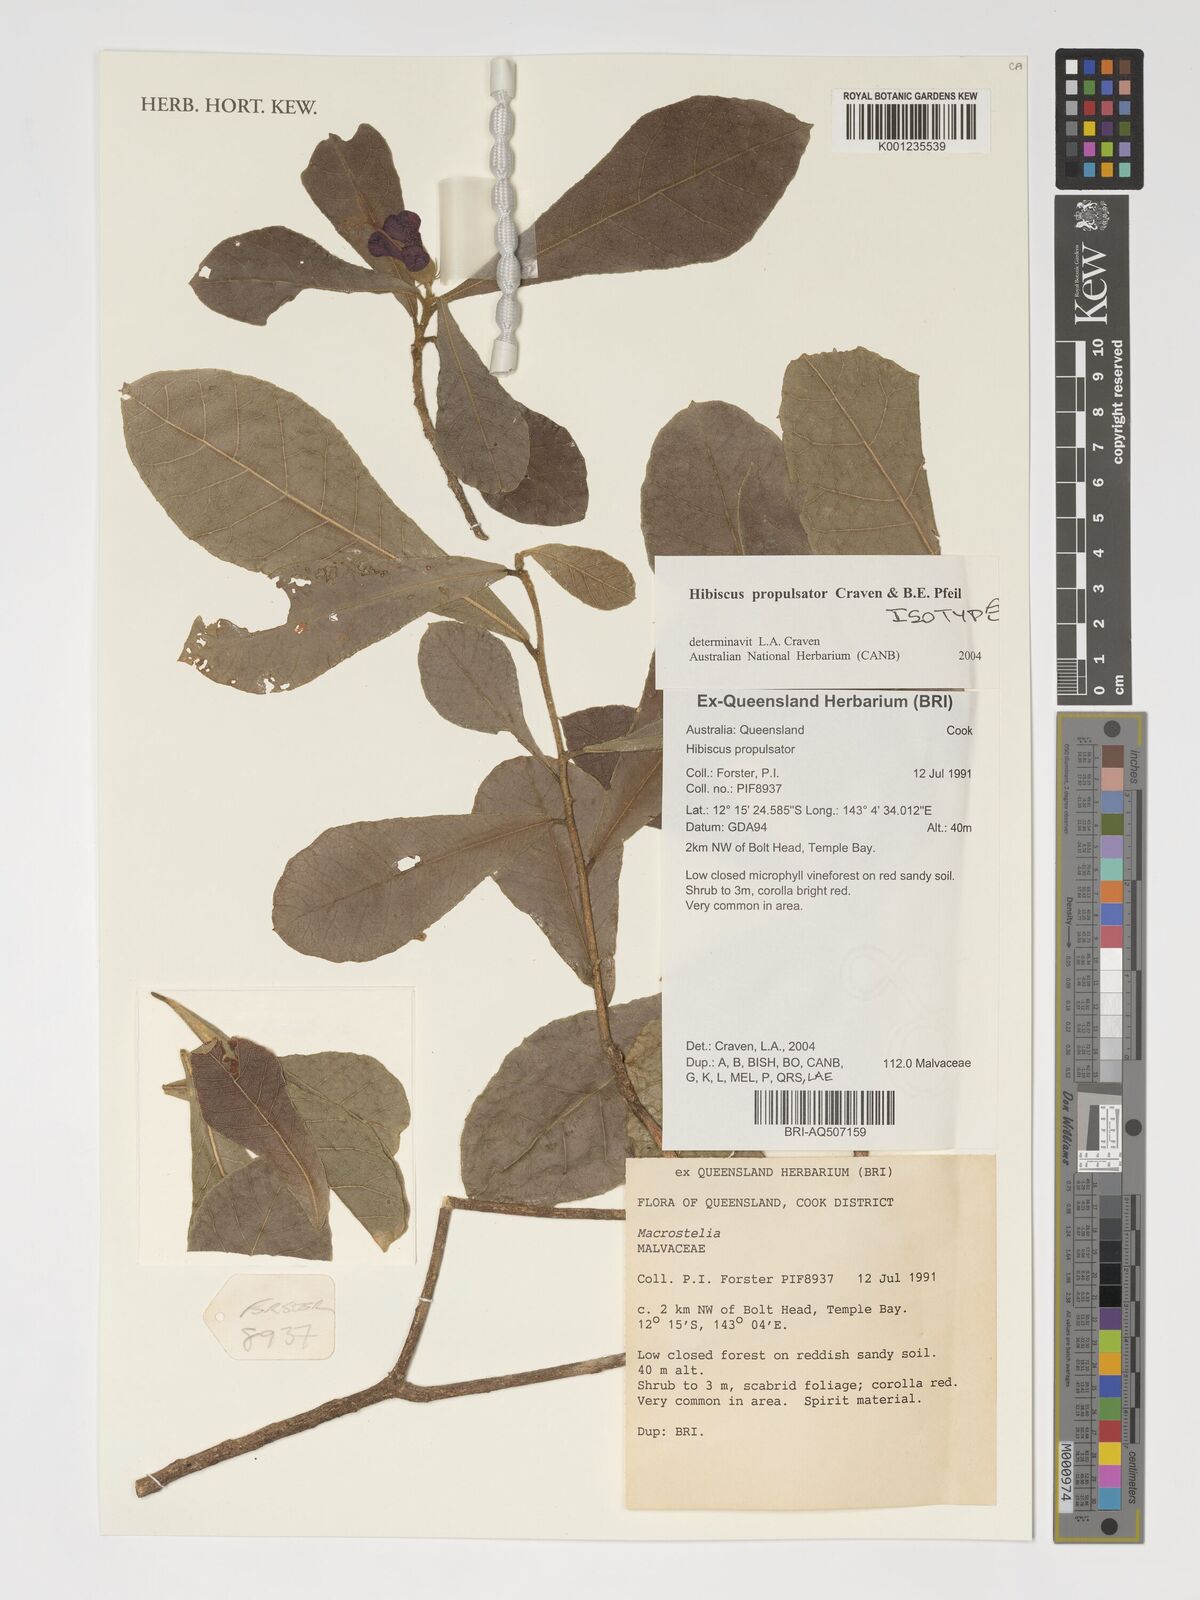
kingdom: Plantae
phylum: Tracheophyta
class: Magnoliopsida
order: Malvales
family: Malvaceae
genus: Hibiscus
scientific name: Hibiscus propulsator
